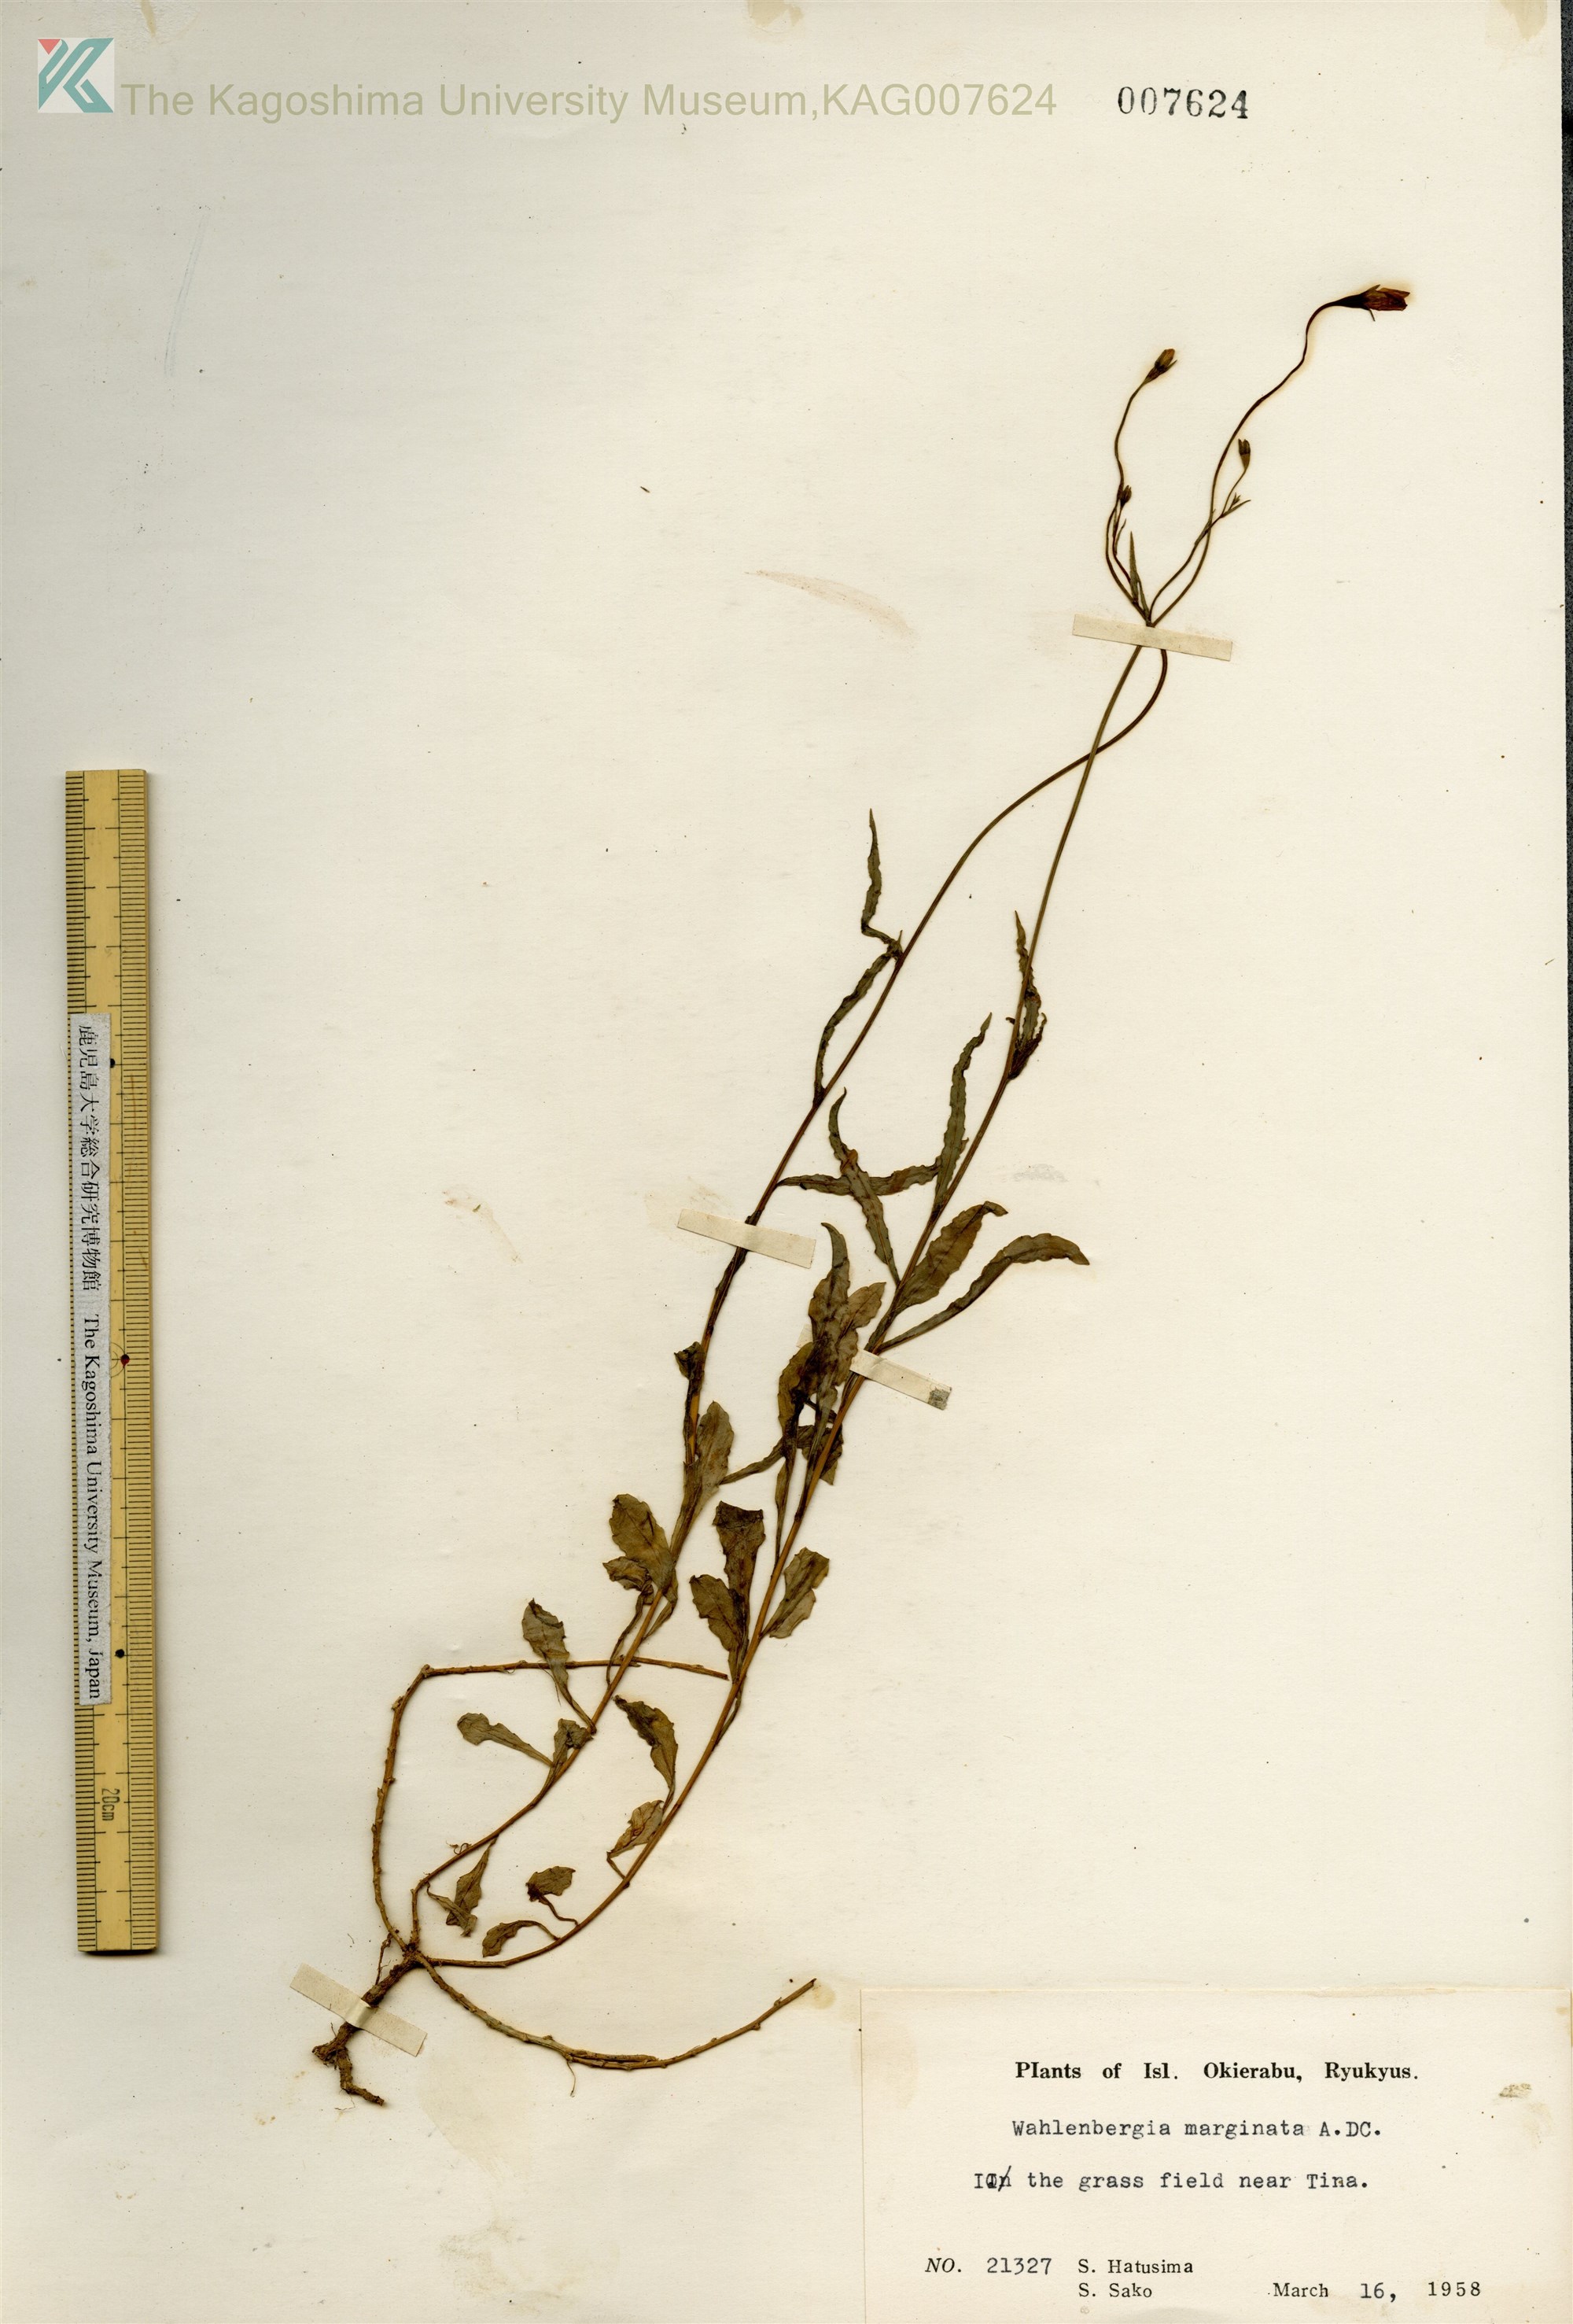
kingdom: Plantae
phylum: Tracheophyta
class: Magnoliopsida
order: Asterales
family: Campanulaceae
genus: Wahlenbergia
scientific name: Wahlenbergia marginata
